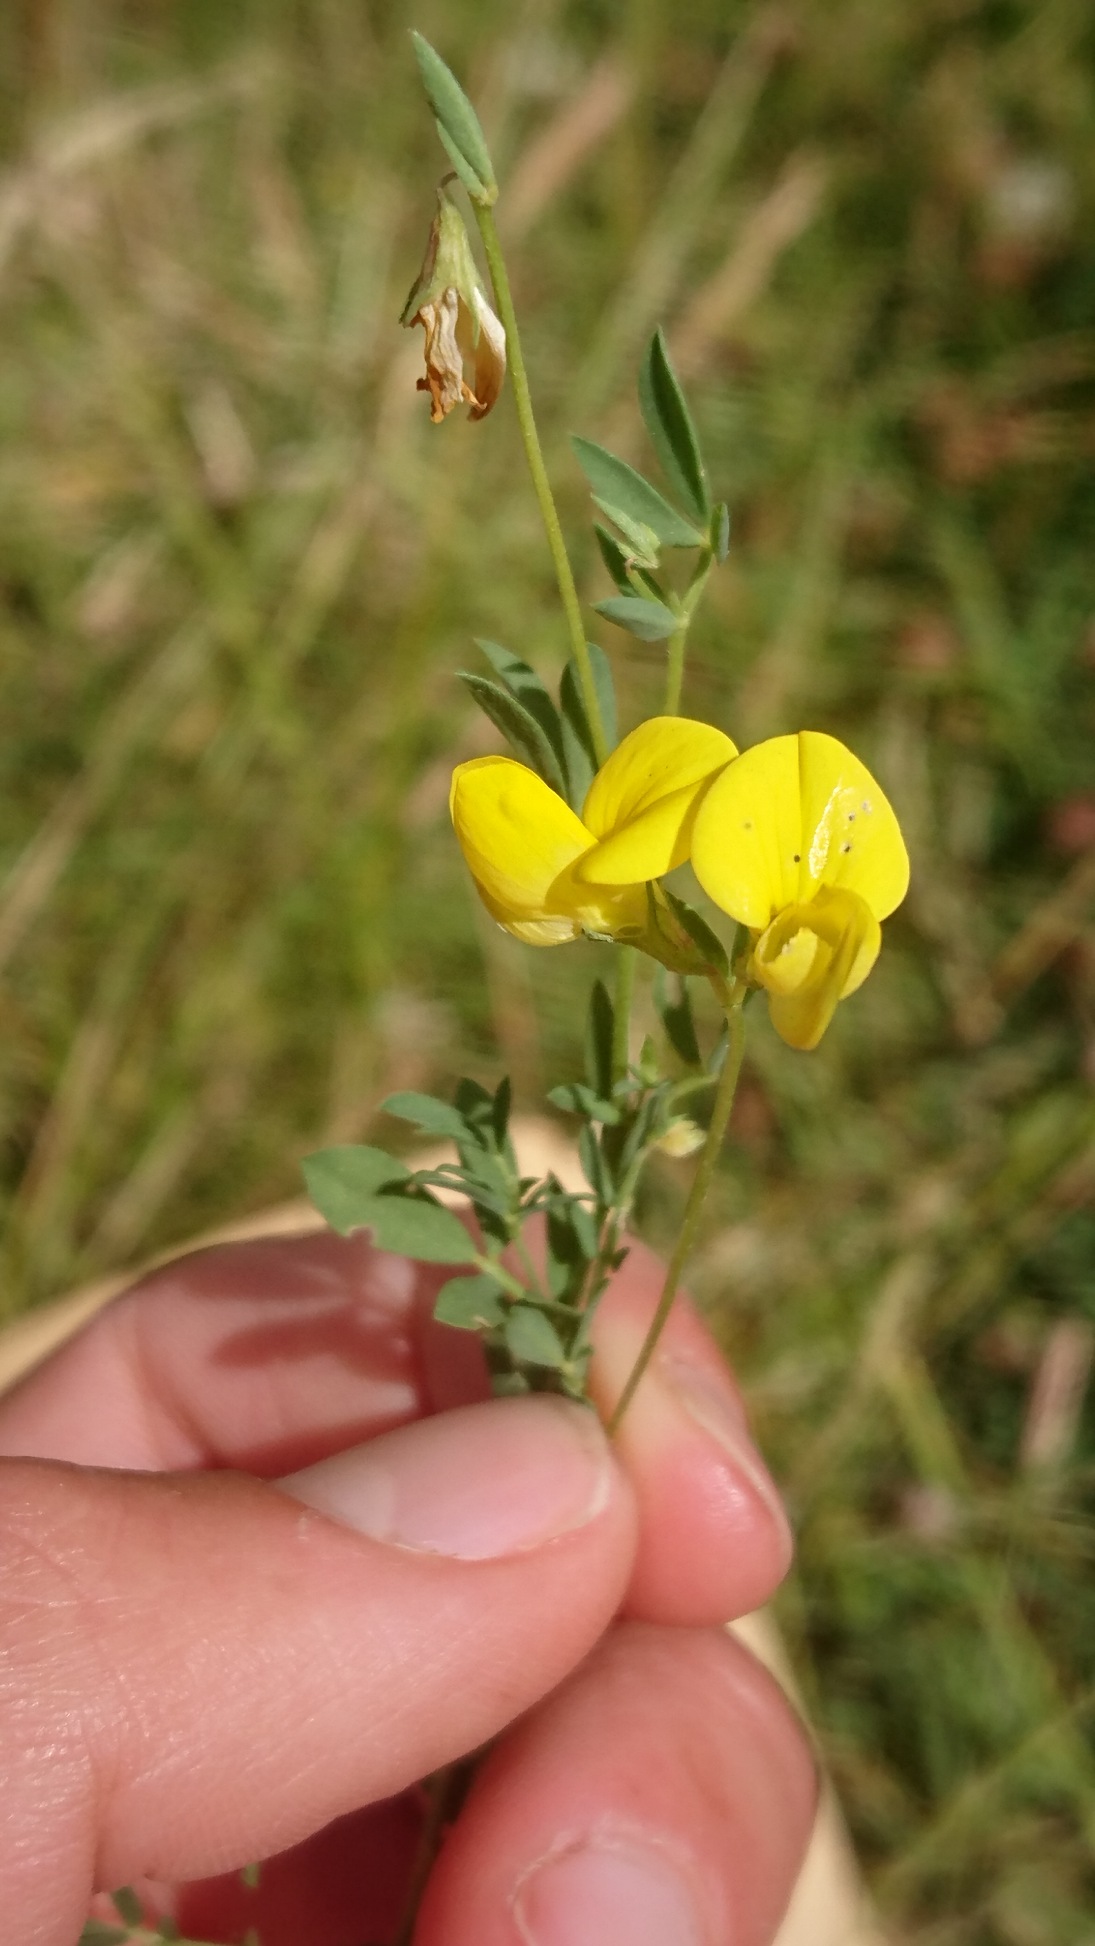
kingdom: Plantae
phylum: Tracheophyta
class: Magnoliopsida
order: Fabales
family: Fabaceae
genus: Lotus
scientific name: Lotus corniculatus
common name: Almindelig kællingetand
